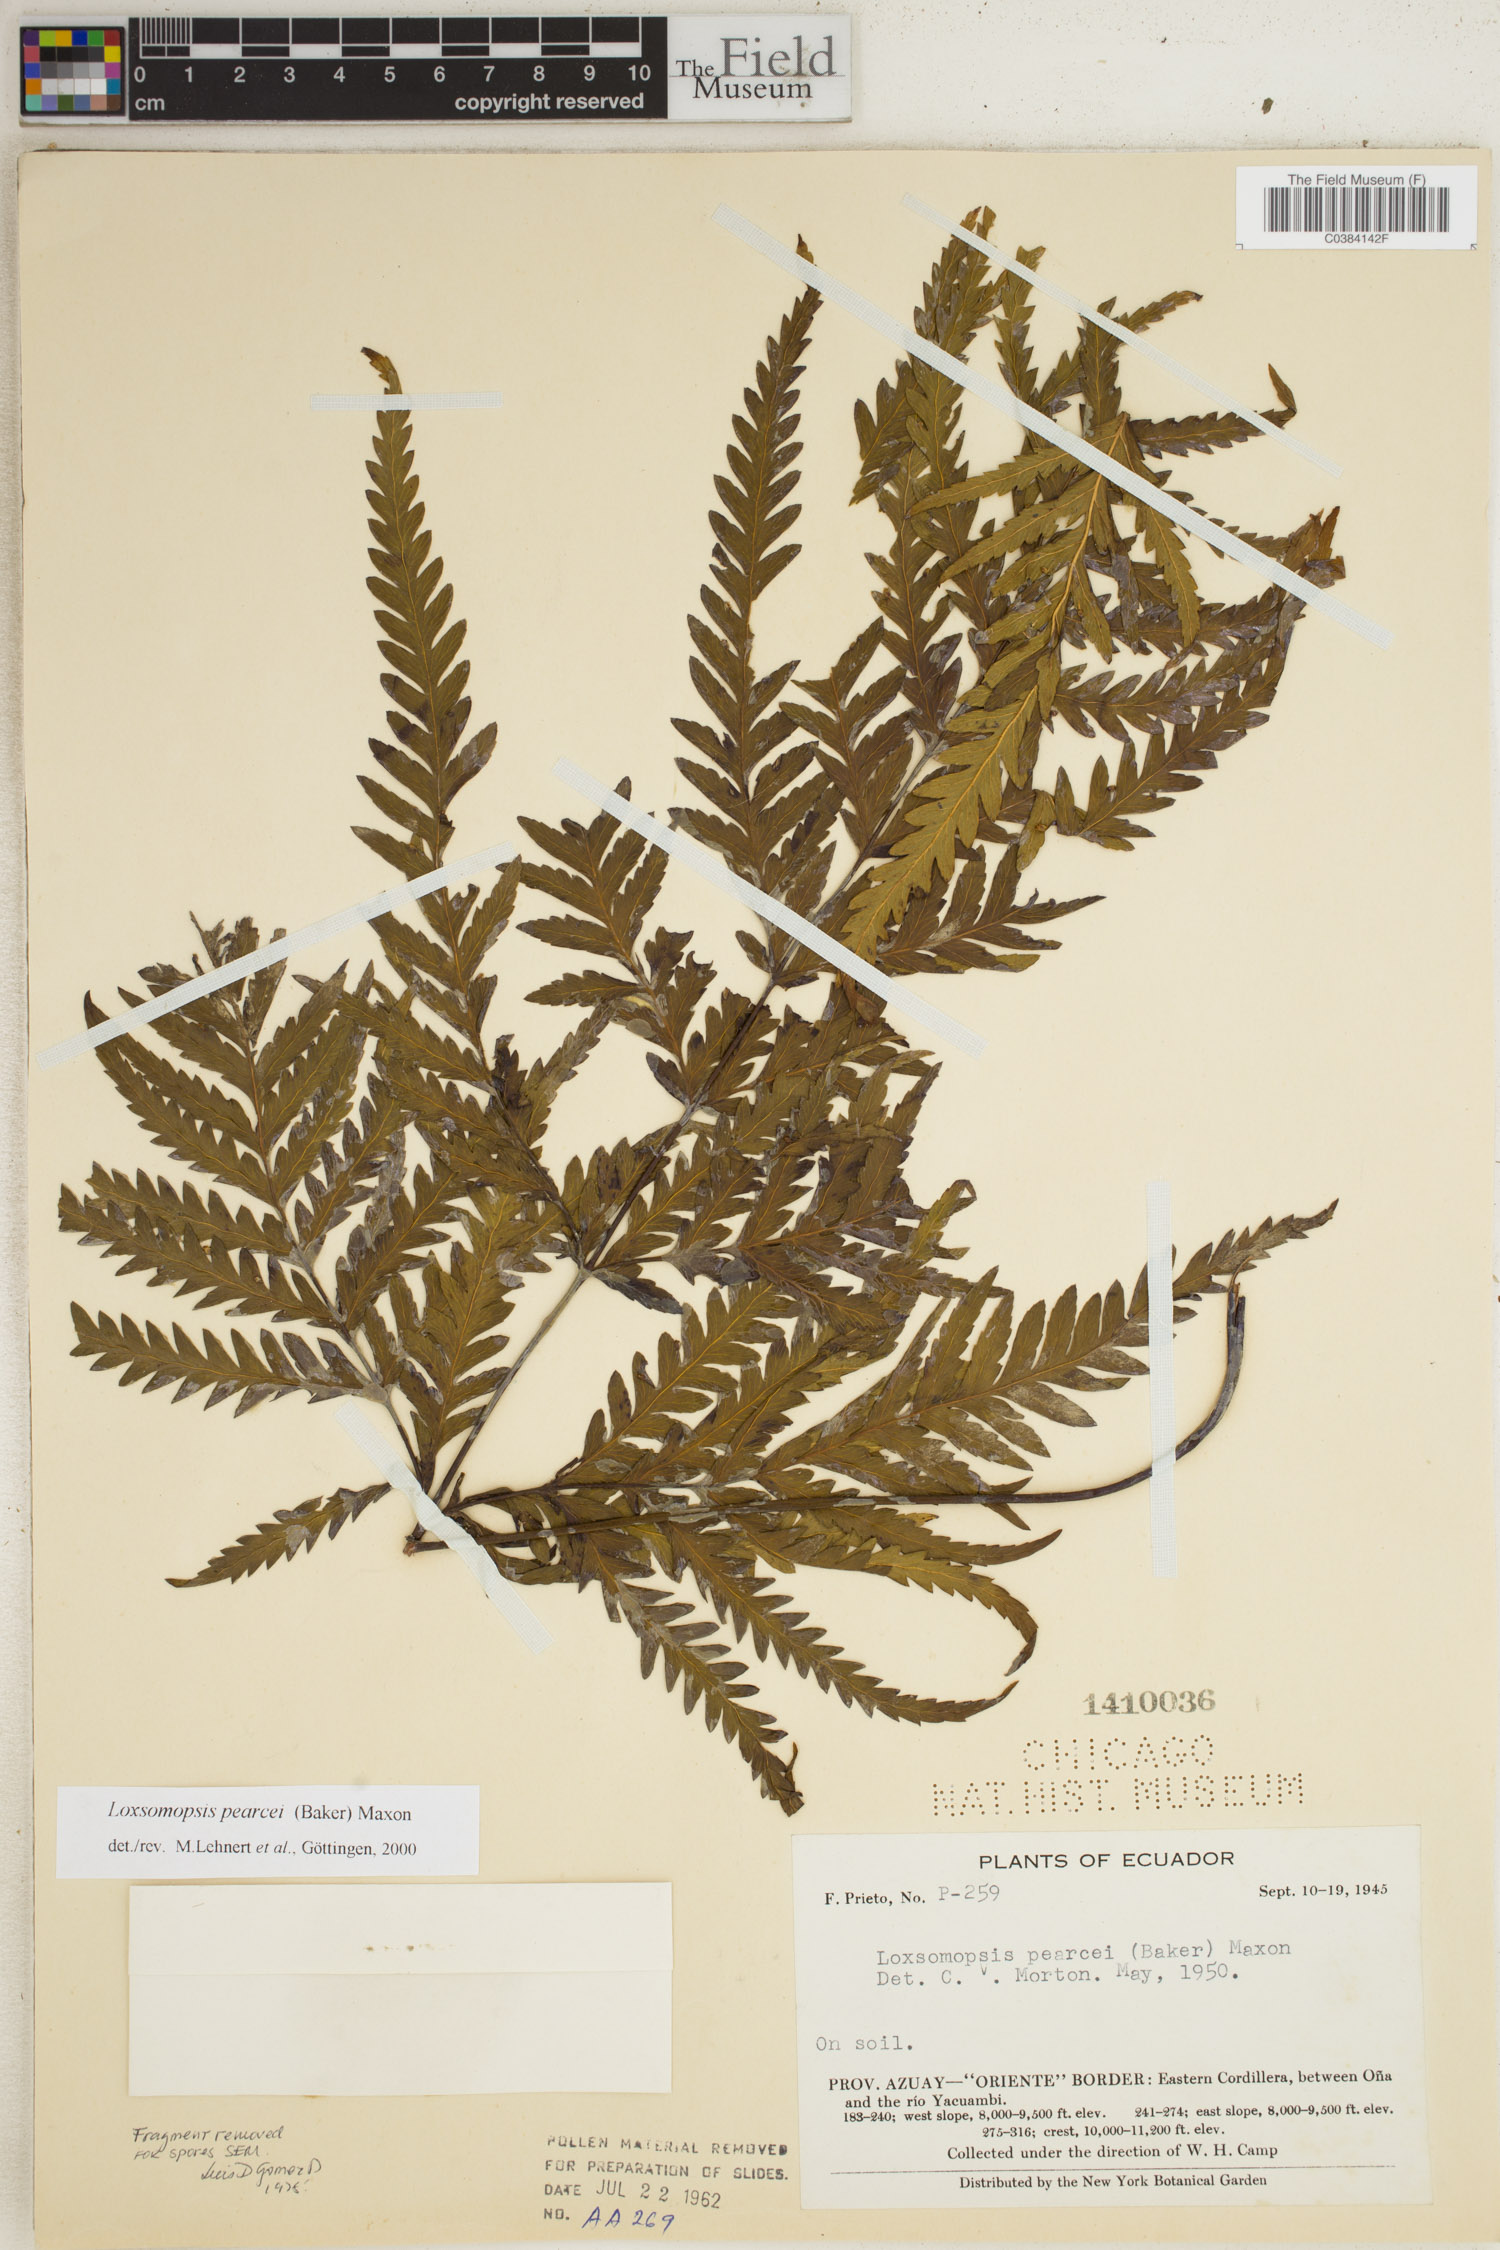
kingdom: Plantae
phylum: Tracheophyta
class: Polypodiopsida
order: Cyatheales
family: Loxsomataceae
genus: Loxsomopsis
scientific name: Loxsomopsis pearcei
